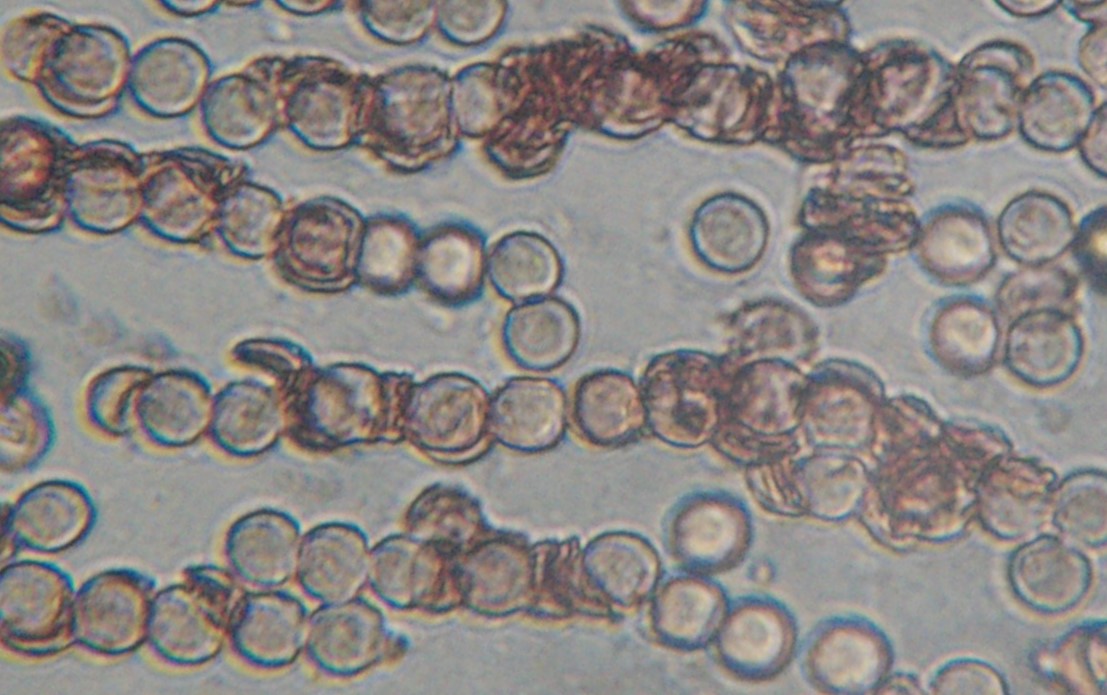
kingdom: Protozoa
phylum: Mycetozoa
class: Myxomycetes
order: Trichiales
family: Arcyriaceae
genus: Arcyria
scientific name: Arcyria denudata
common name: karminrød skålsvøb
